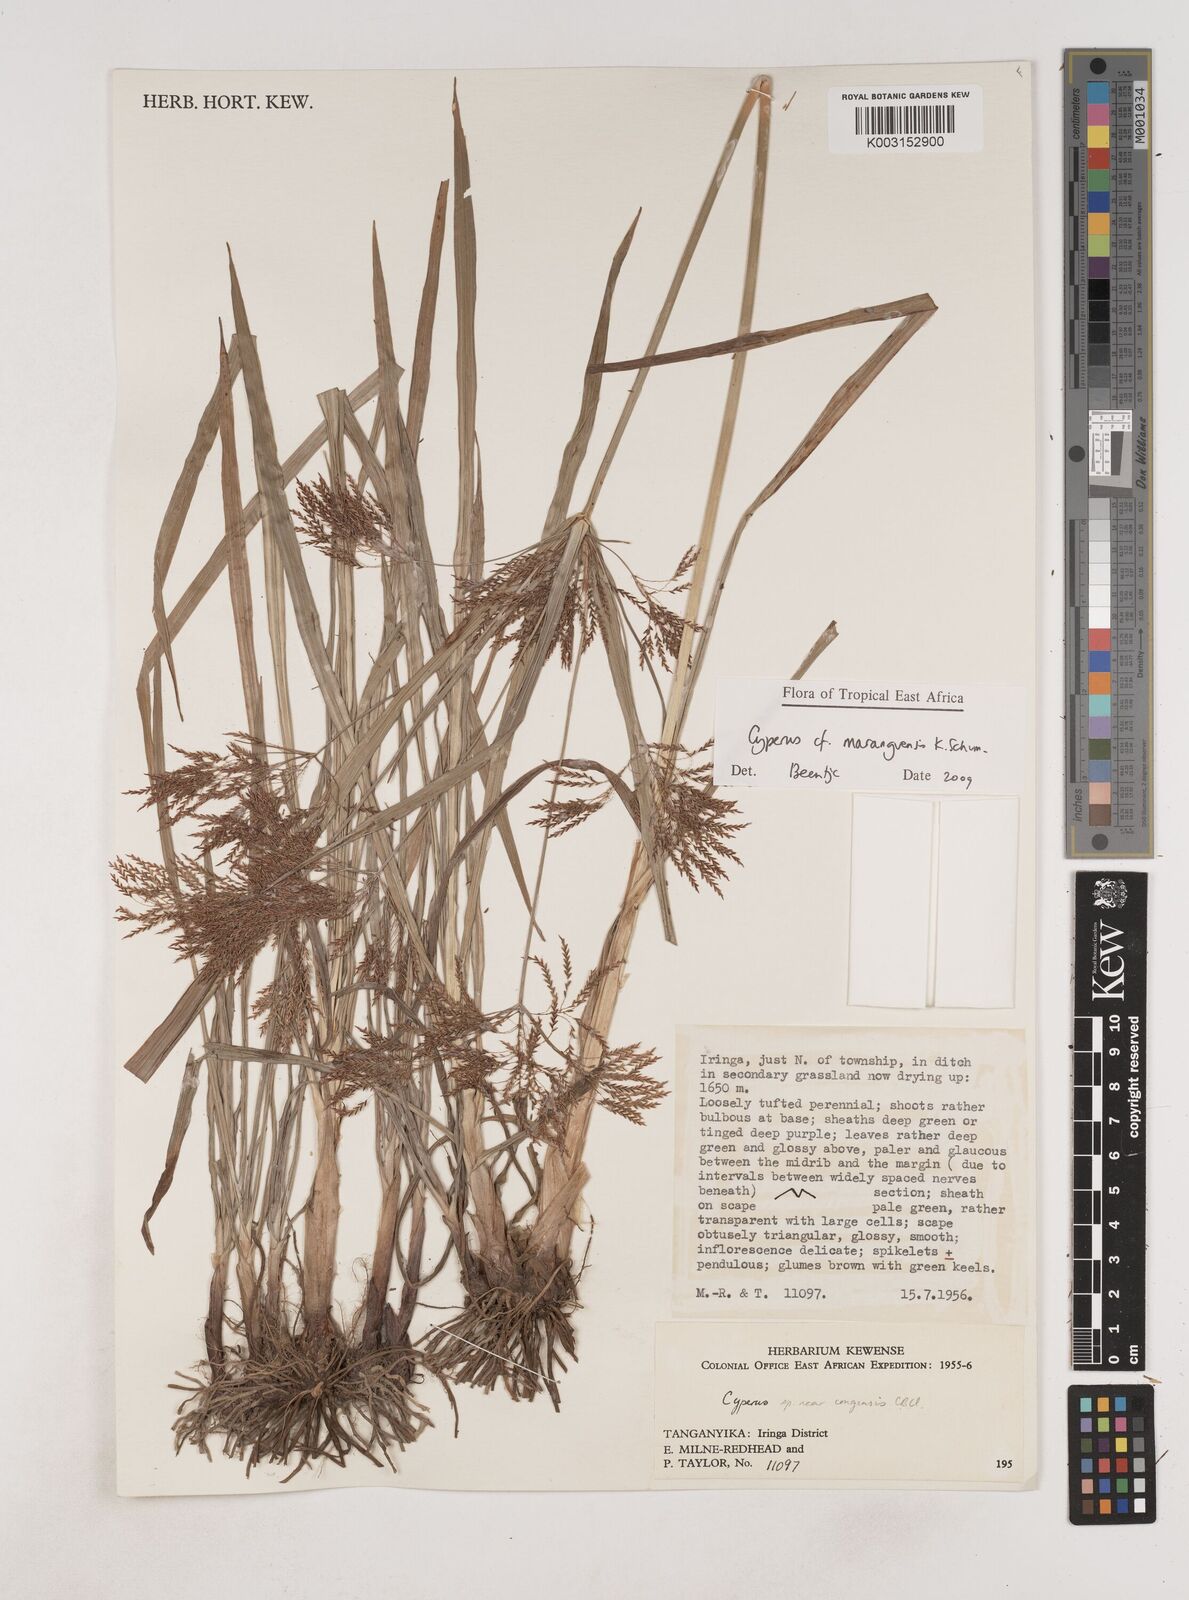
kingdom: Plantae
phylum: Tracheophyta
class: Liliopsida
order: Poales
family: Cyperaceae
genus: Cyperus
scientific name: Cyperus maranguensis
